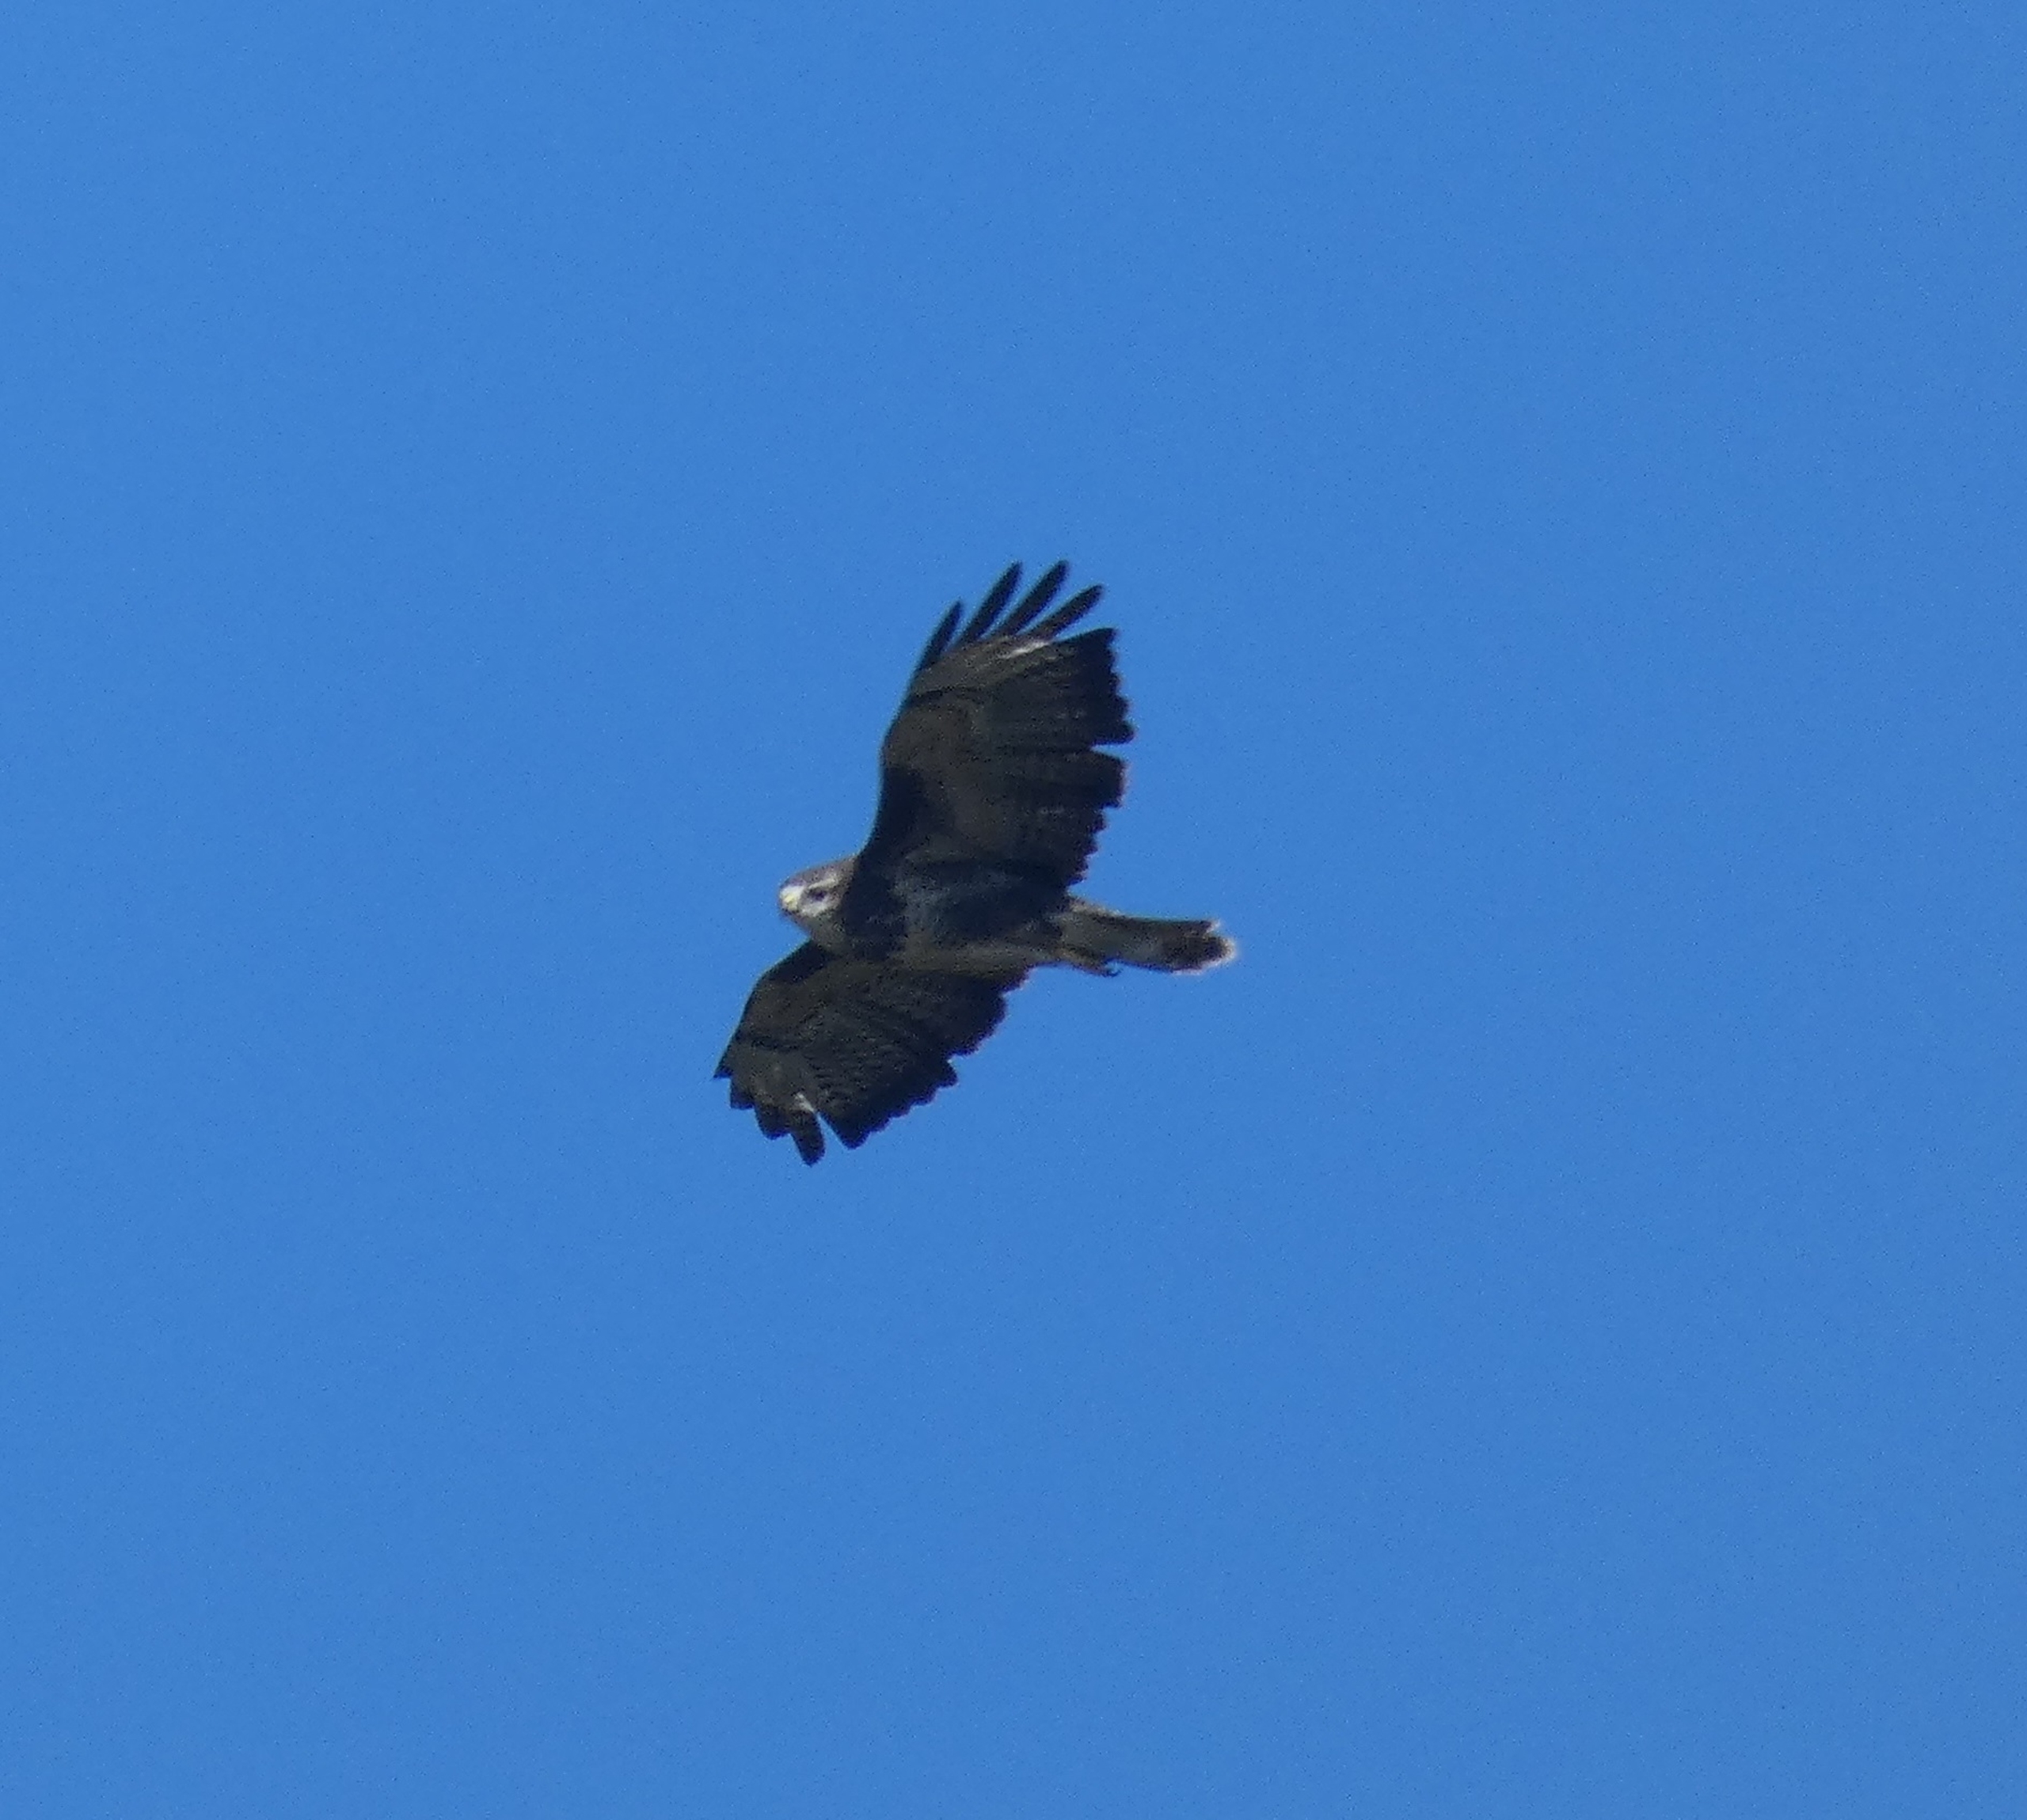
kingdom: Animalia
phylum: Chordata
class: Aves
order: Accipitriformes
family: Accipitridae
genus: Buteo
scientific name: Buteo buteo
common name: Musvåge
